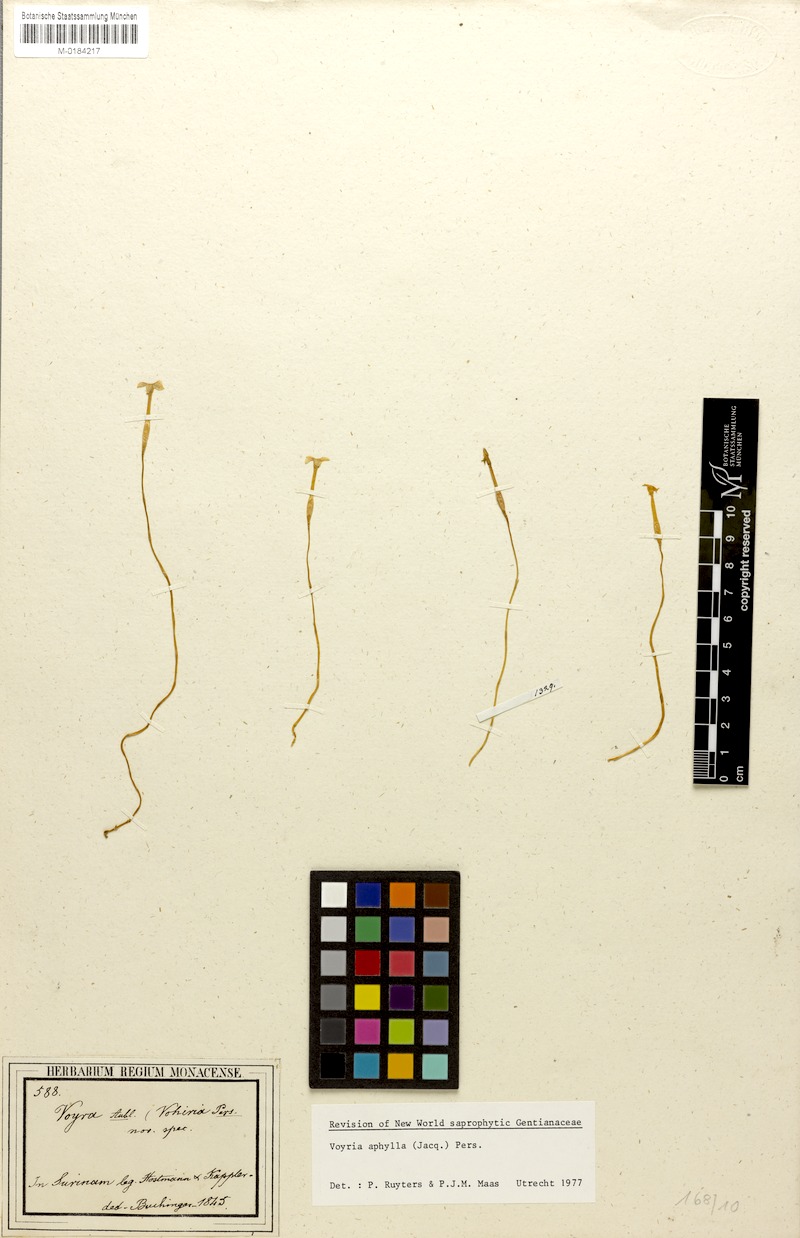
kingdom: Plantae
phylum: Tracheophyta
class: Magnoliopsida
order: Gentianales
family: Gentianaceae
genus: Voyria
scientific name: Voyria aphylla
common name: Leafless ghost plant
